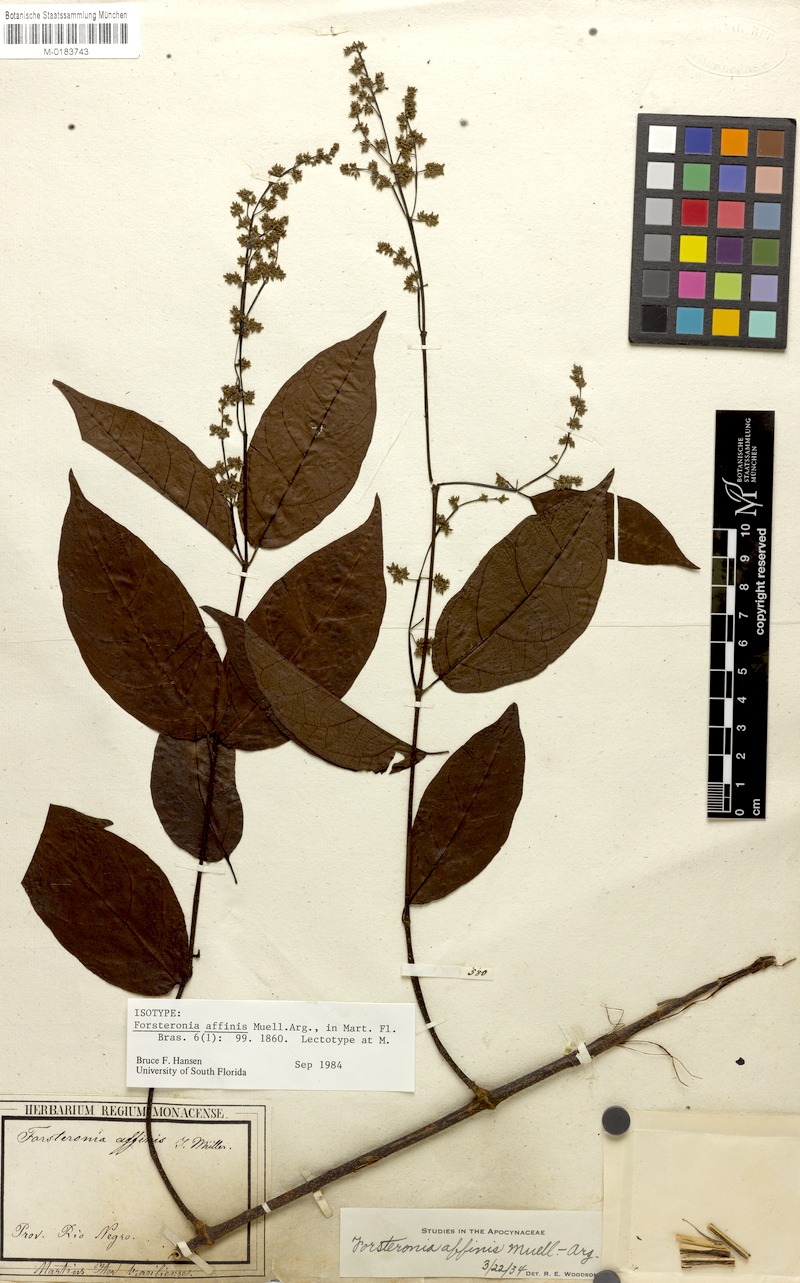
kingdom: Plantae
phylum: Tracheophyta
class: Magnoliopsida
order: Gentianales
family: Apocynaceae
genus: Forsteronia
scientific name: Forsteronia affinis
